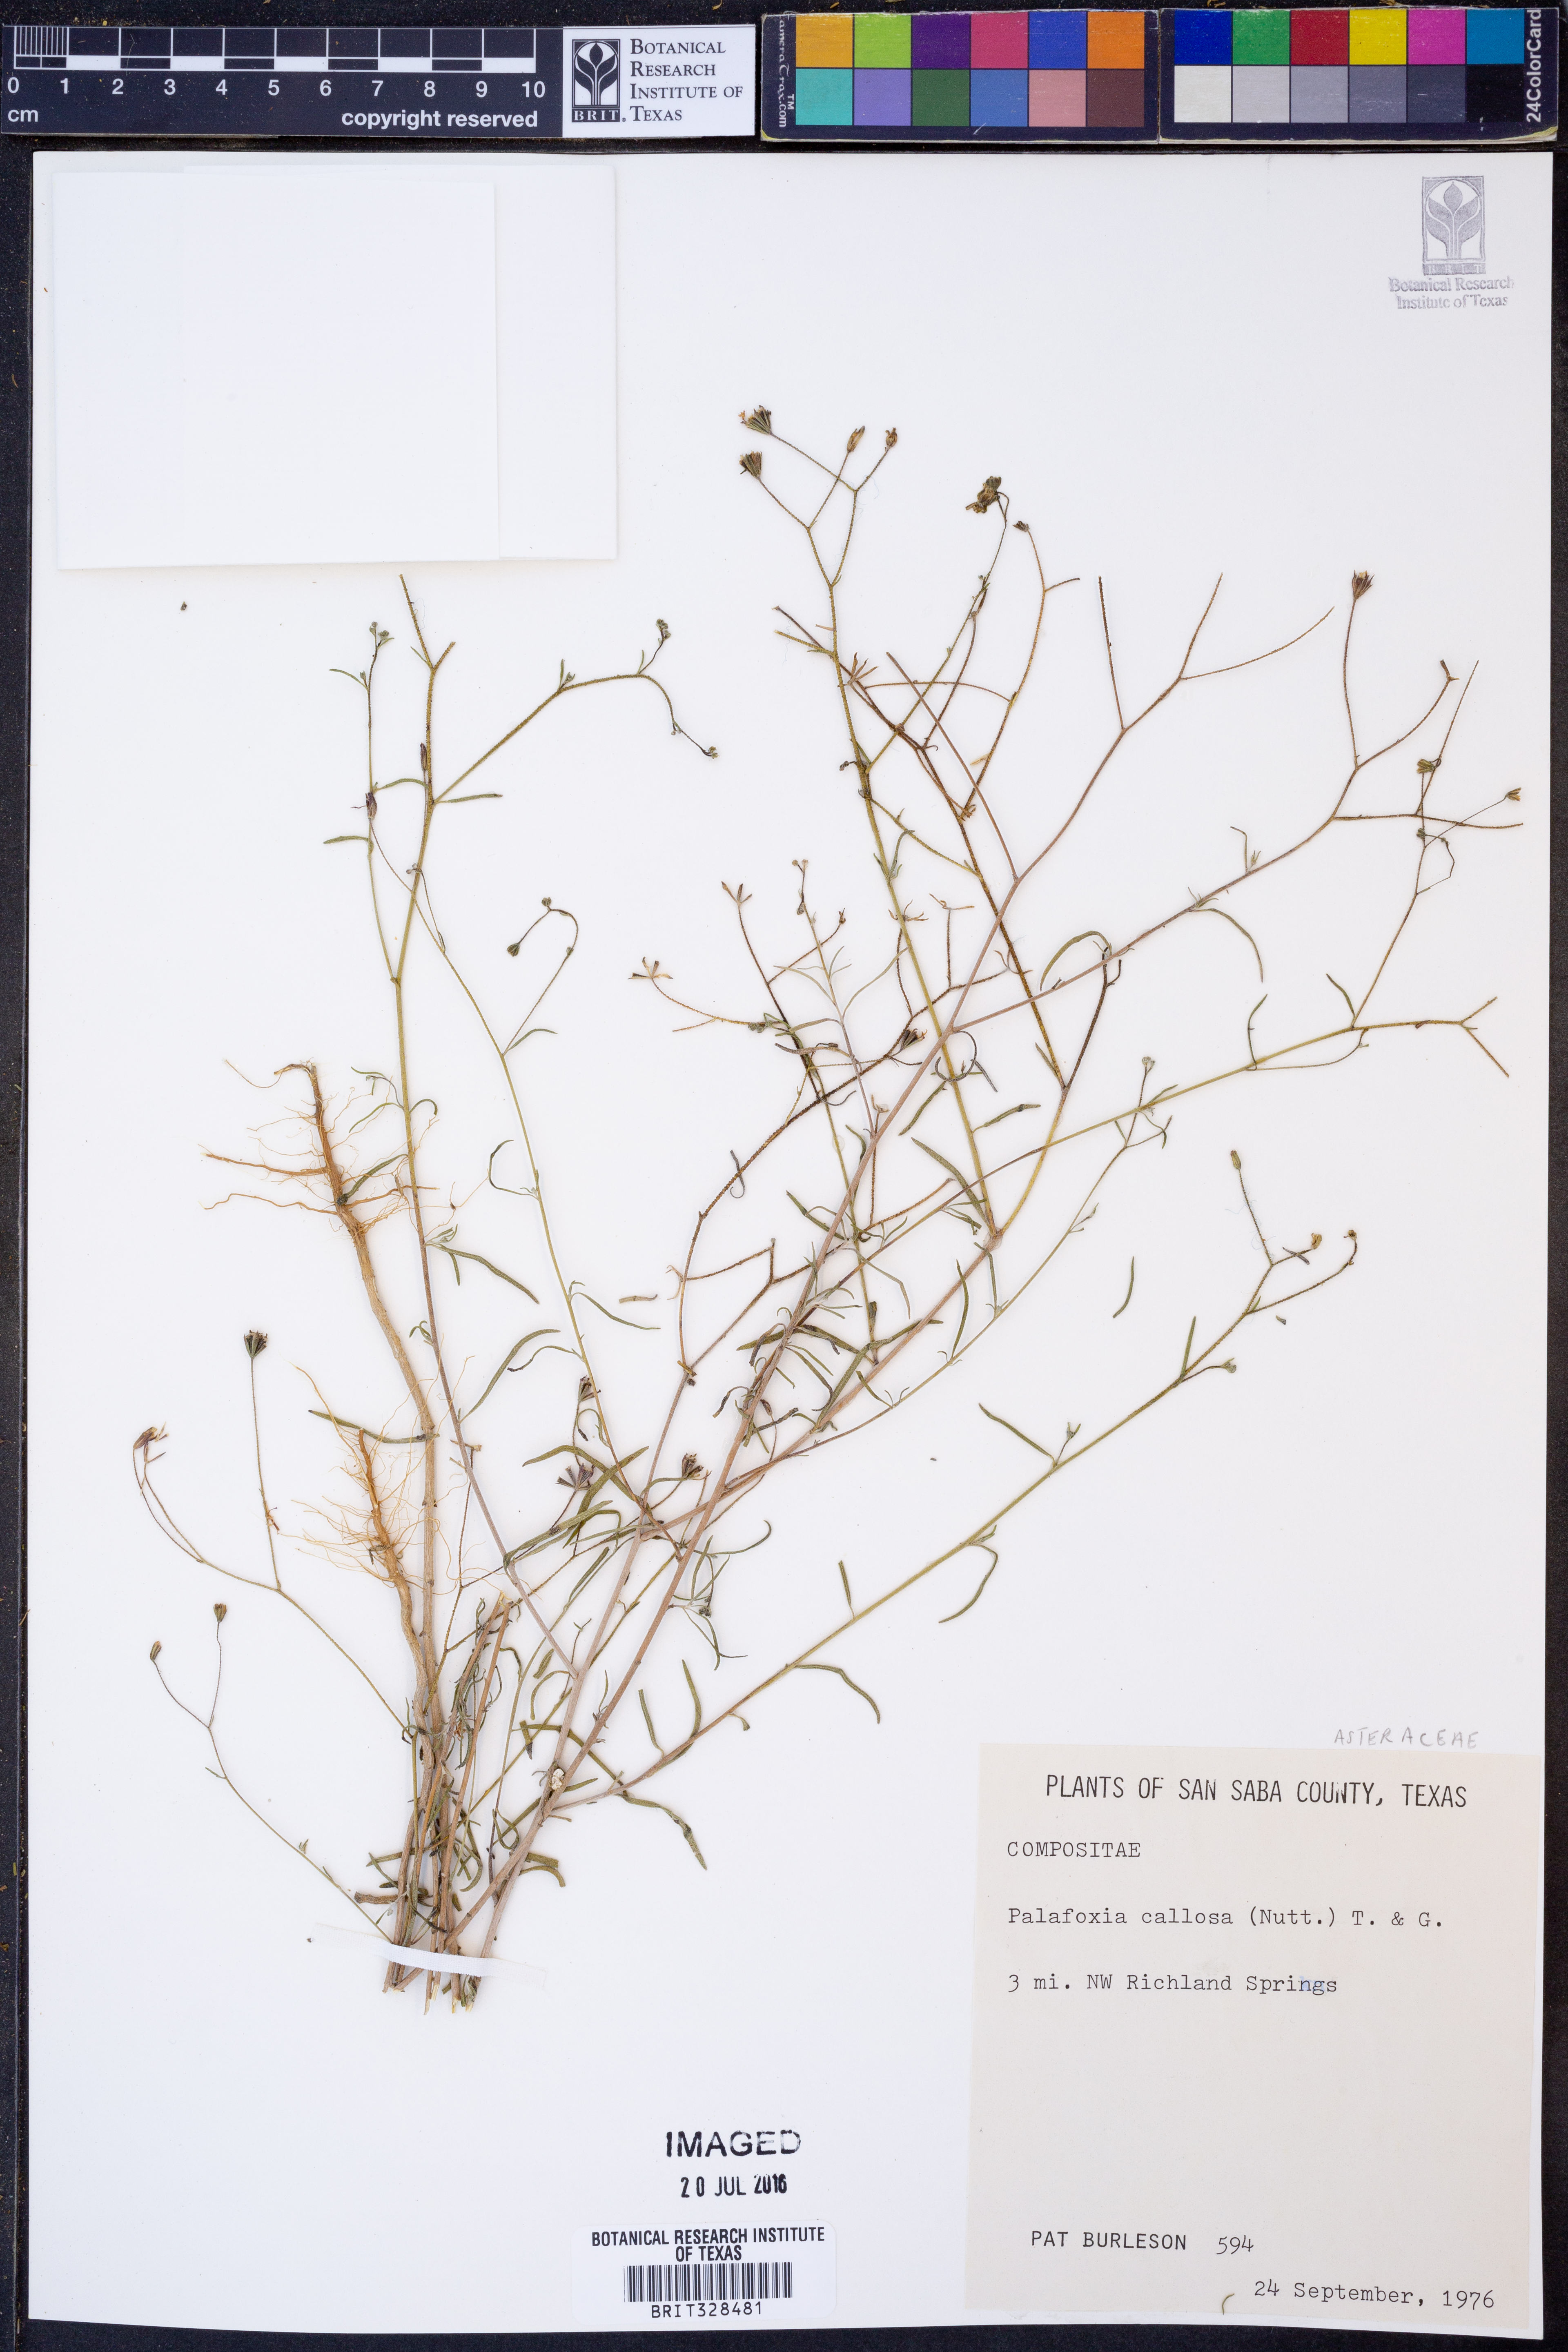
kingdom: Plantae
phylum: Tracheophyta
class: Magnoliopsida
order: Asterales
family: Asteraceae
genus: Palafoxia
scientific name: Palafoxia callosa
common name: Small palafox
